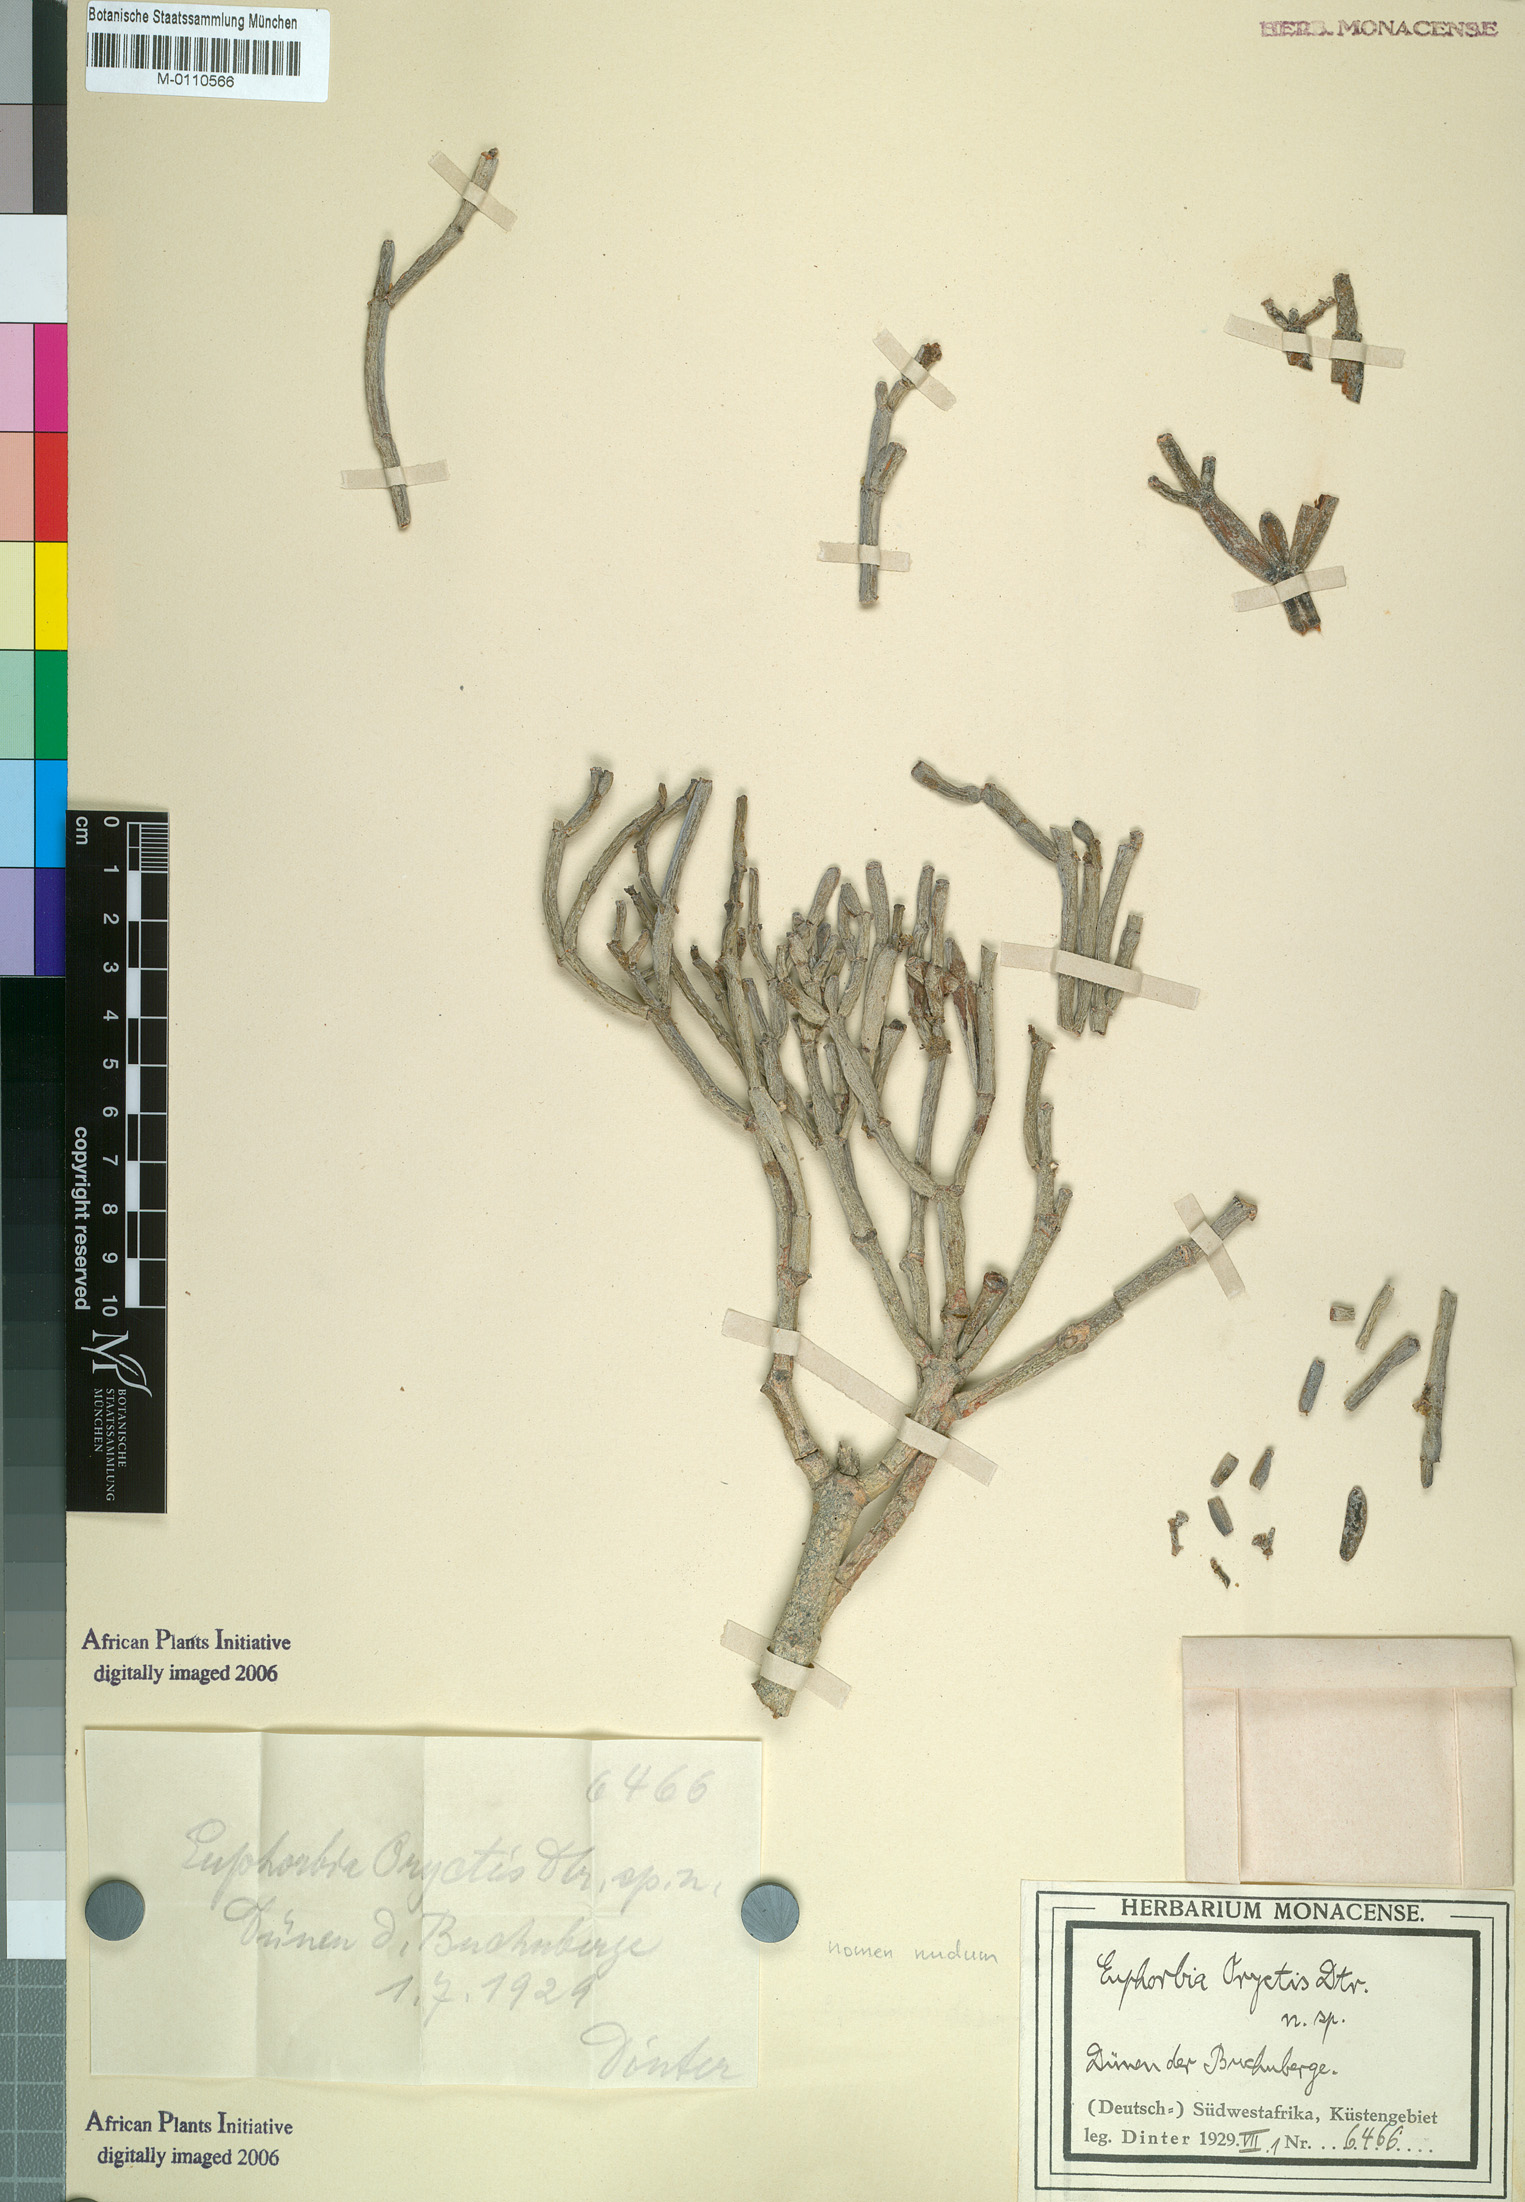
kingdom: Plantae
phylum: Tracheophyta
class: Magnoliopsida
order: Malpighiales
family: Euphorbiaceae
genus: Euphorbia
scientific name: Euphorbia oryctis
